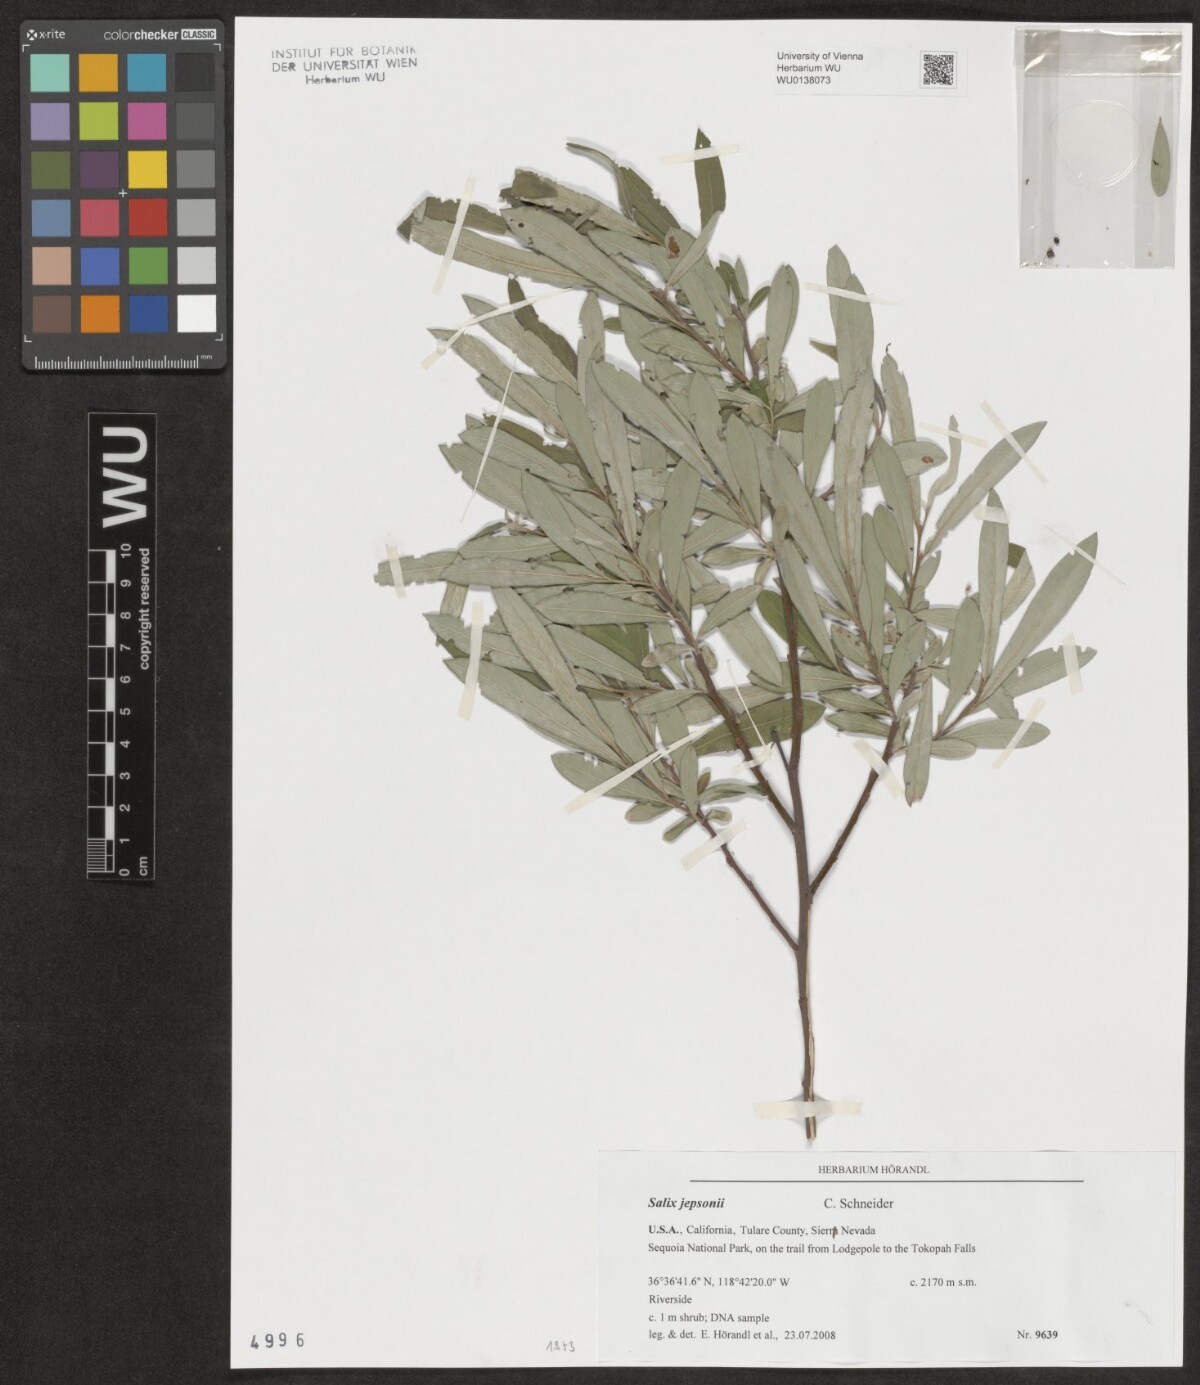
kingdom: Plantae
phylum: Tracheophyta
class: Magnoliopsida
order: Malpighiales
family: Salicaceae
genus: Salix
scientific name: Salix jepsonii
